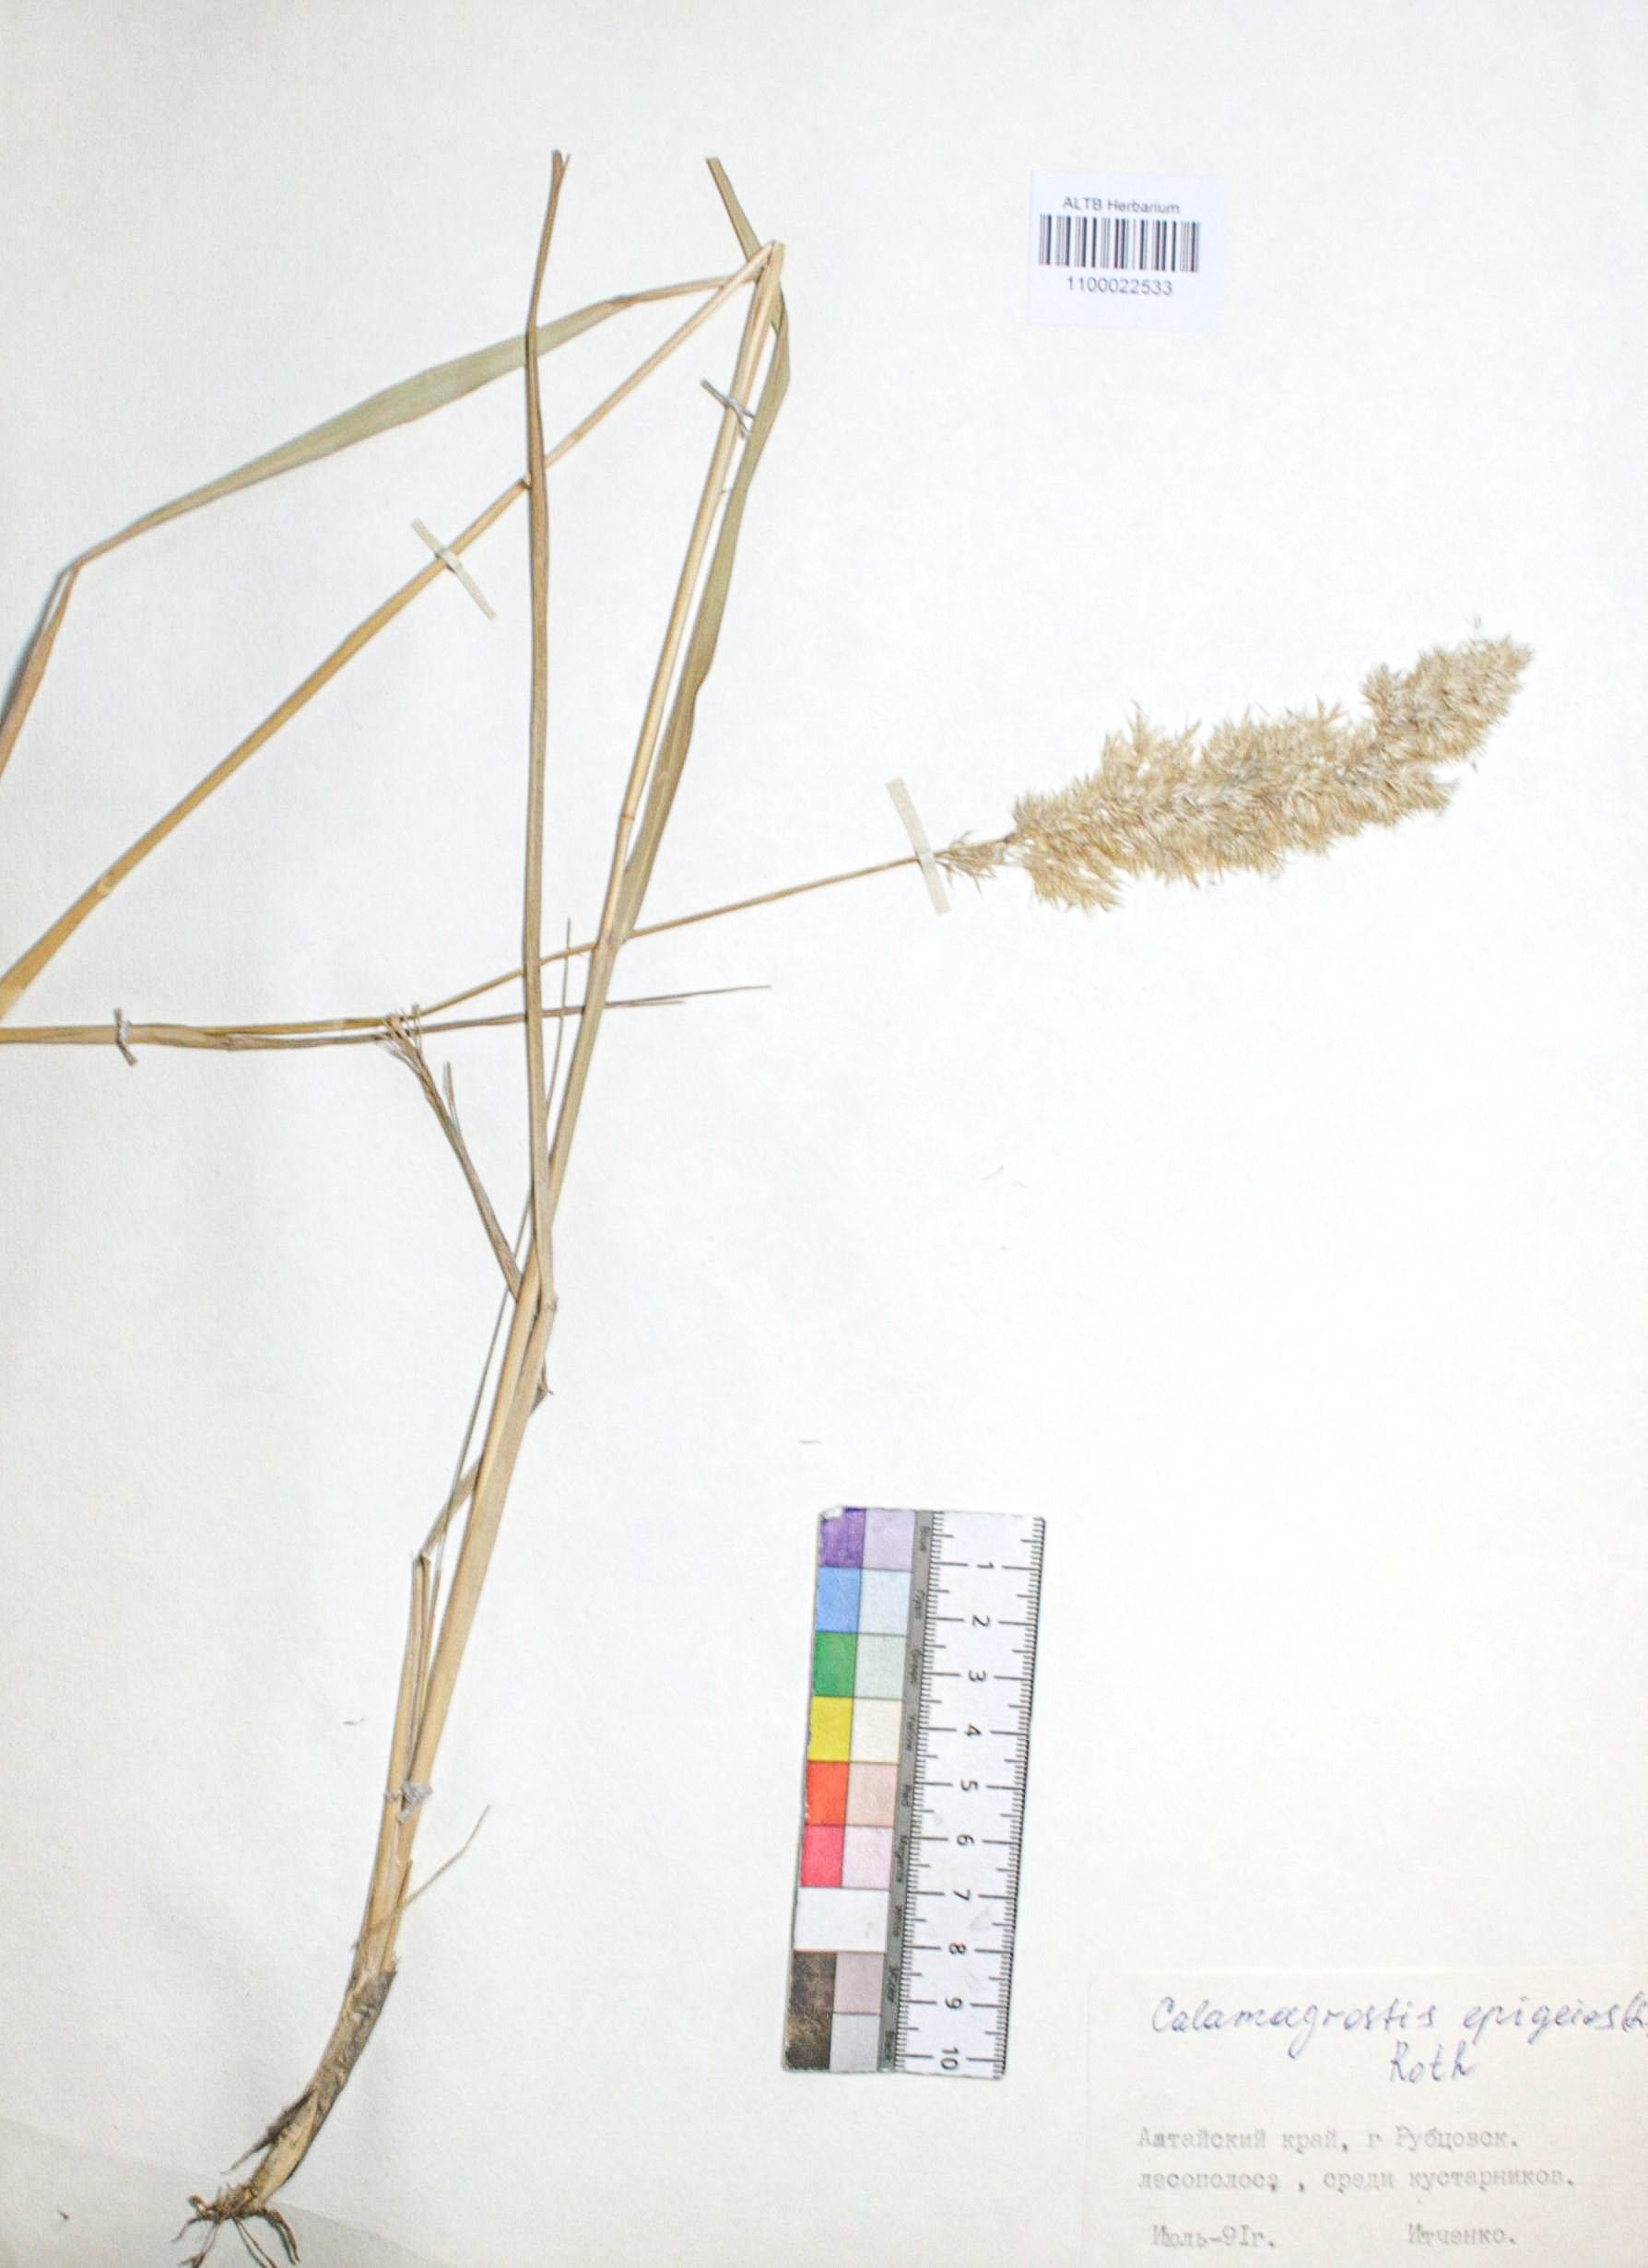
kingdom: Plantae
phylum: Tracheophyta
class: Liliopsida
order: Poales
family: Poaceae
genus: Calamagrostis
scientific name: Calamagrostis epigejos
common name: Wood small-reed
